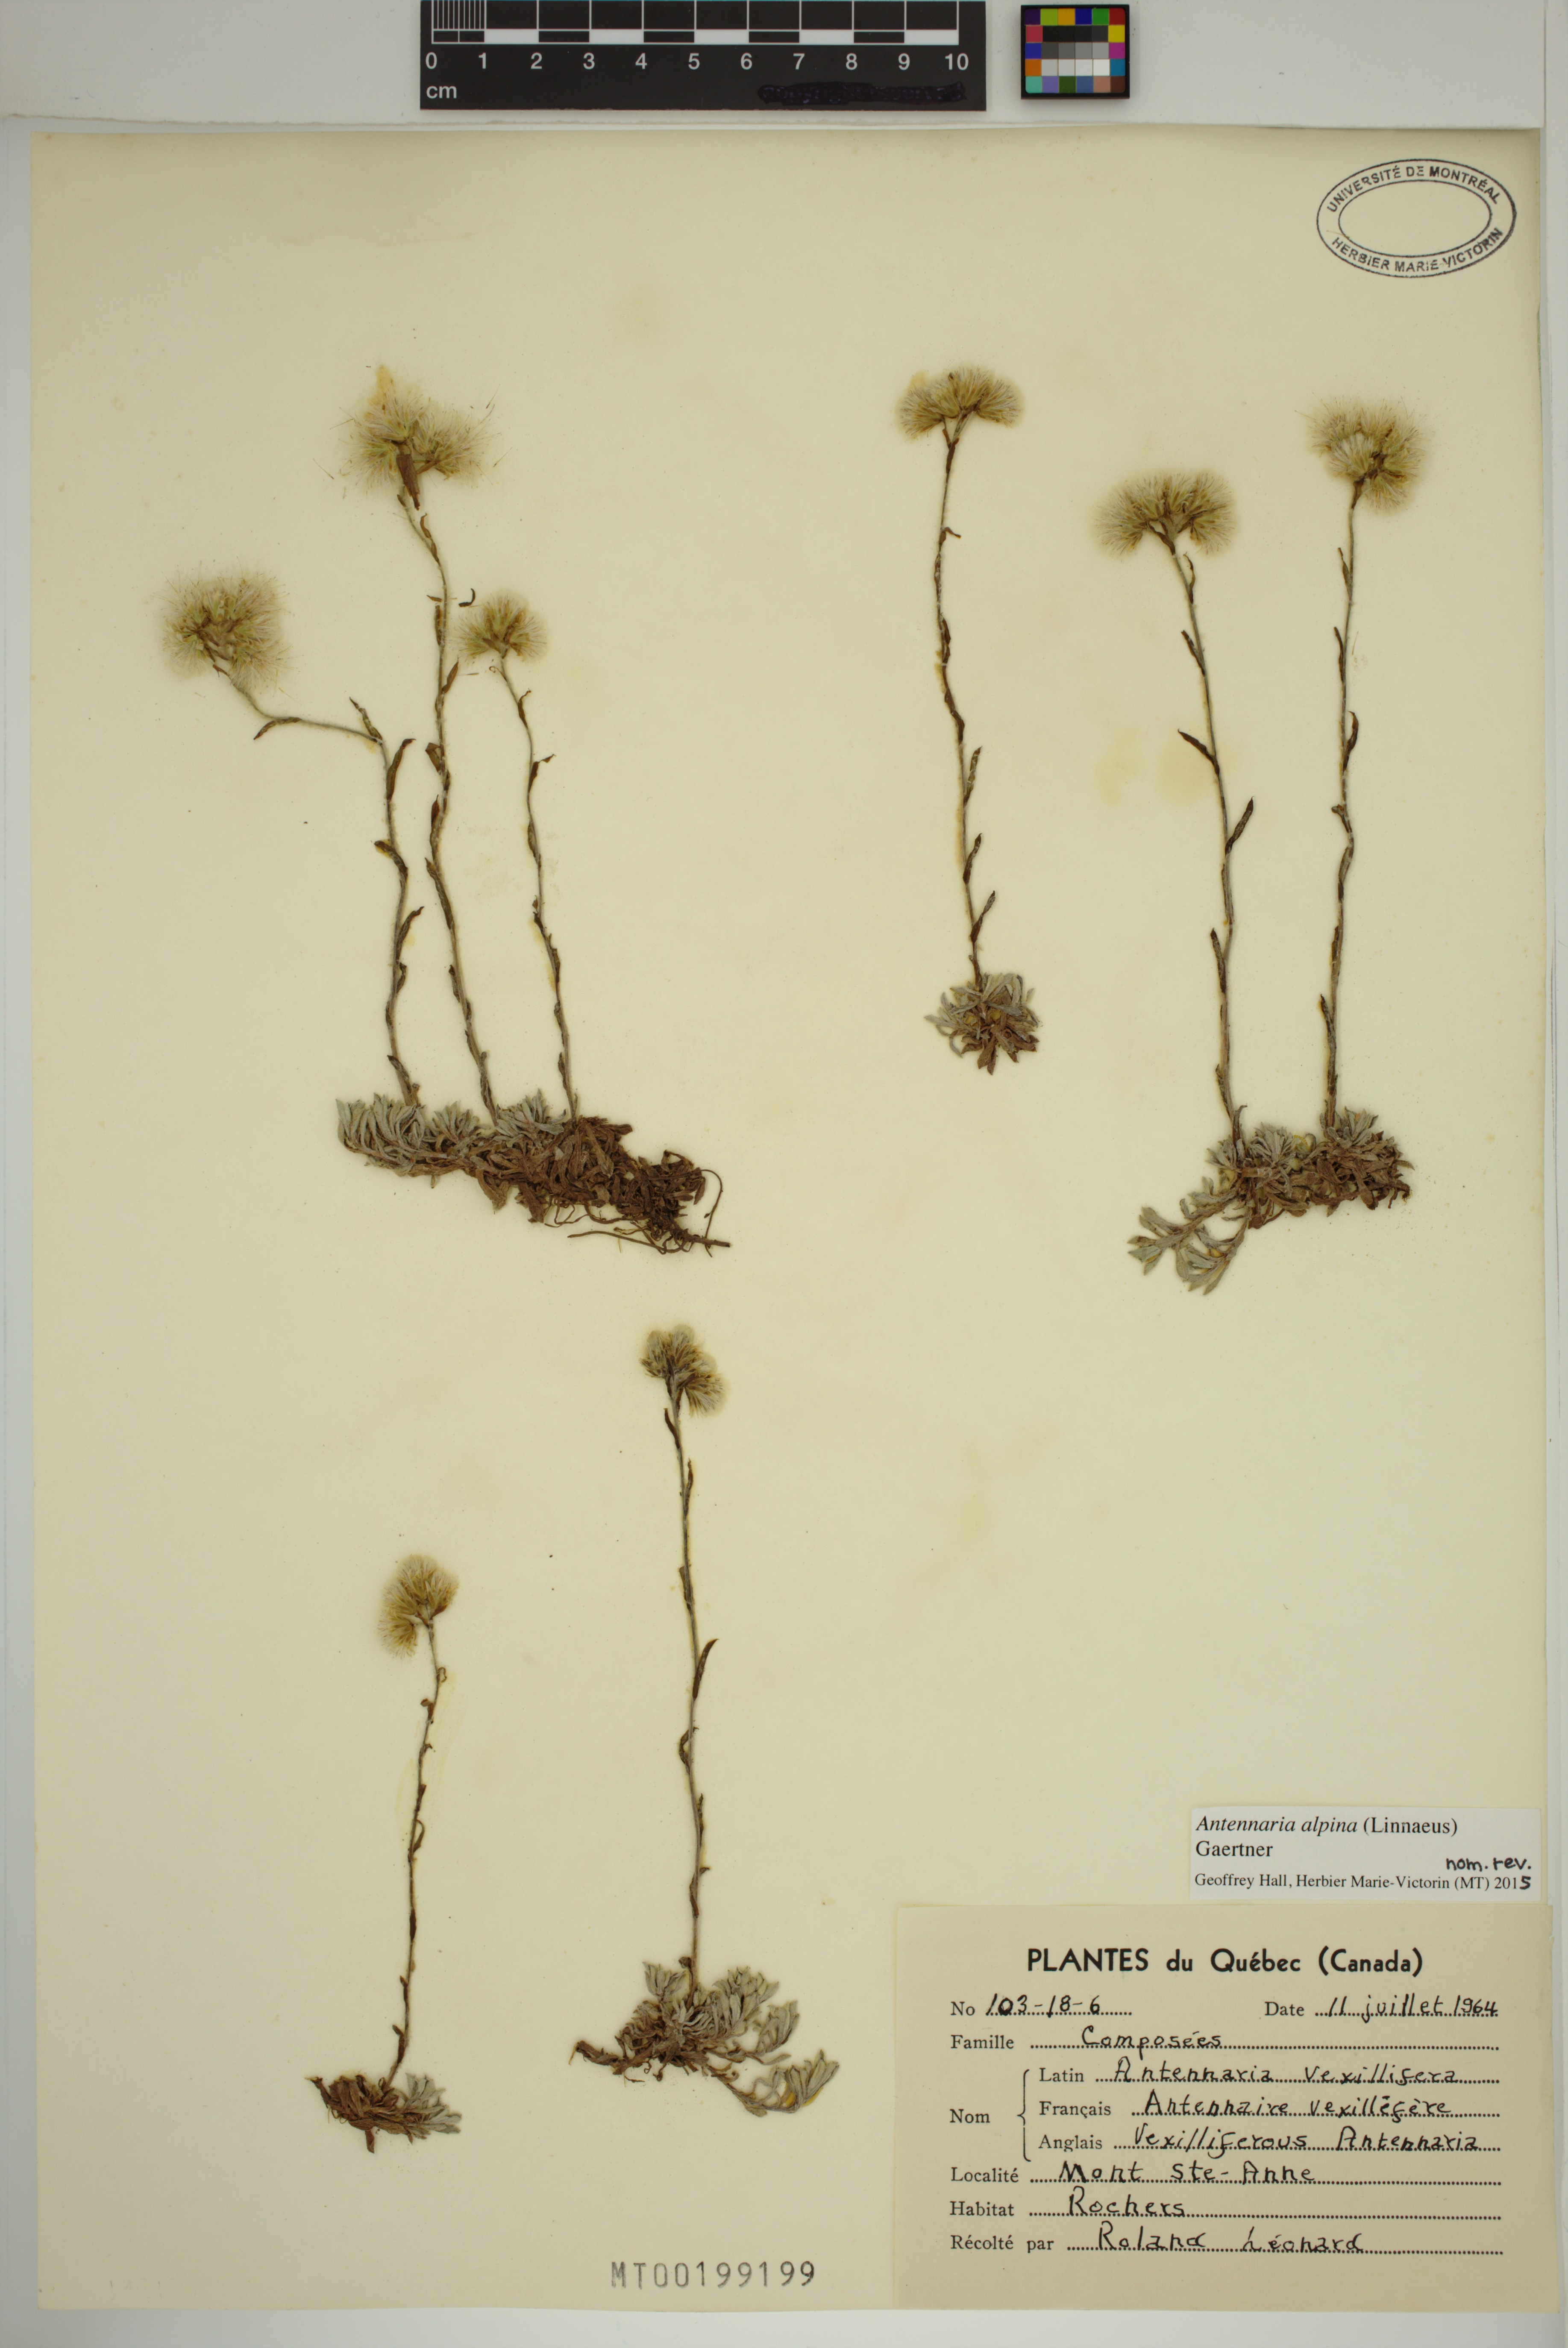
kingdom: Plantae
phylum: Tracheophyta
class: Magnoliopsida
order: Asterales
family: Asteraceae
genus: Antennaria
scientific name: Antennaria alpina
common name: Alpine pussytoes
